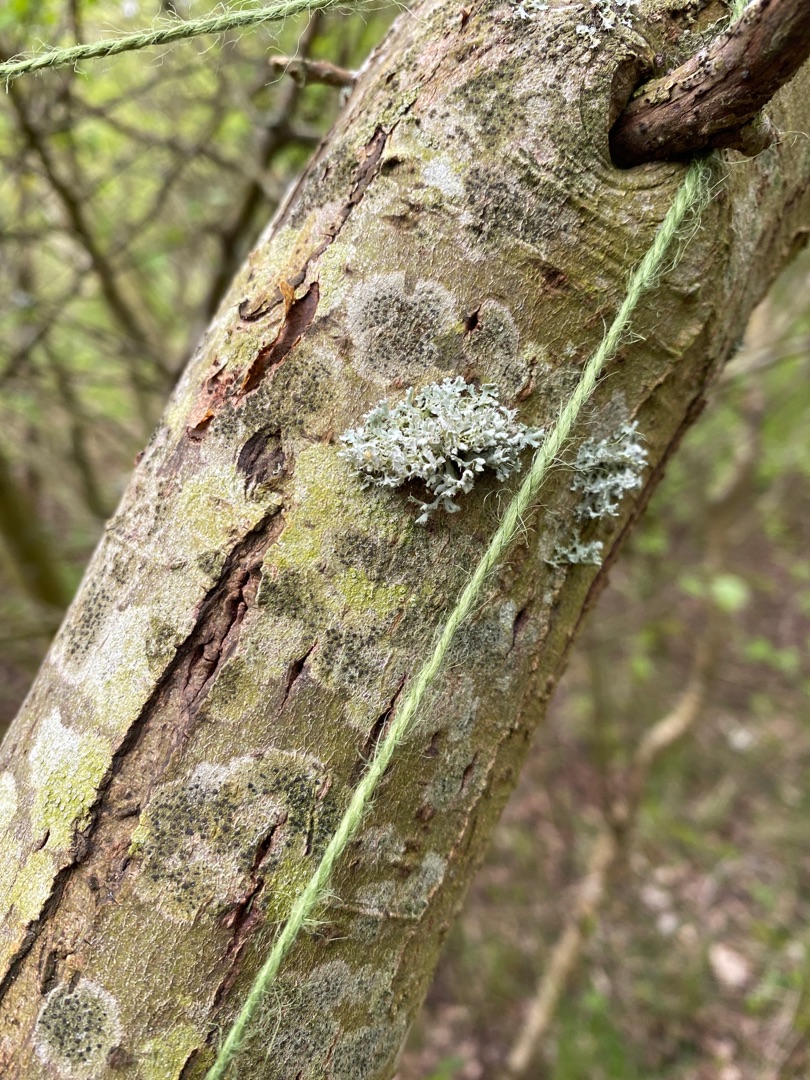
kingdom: Fungi
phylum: Ascomycota
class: Lecanoromycetes
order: Caliciales
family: Physciaceae
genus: Physcia
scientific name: Physcia adscendens
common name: Hætte-rosetlav
